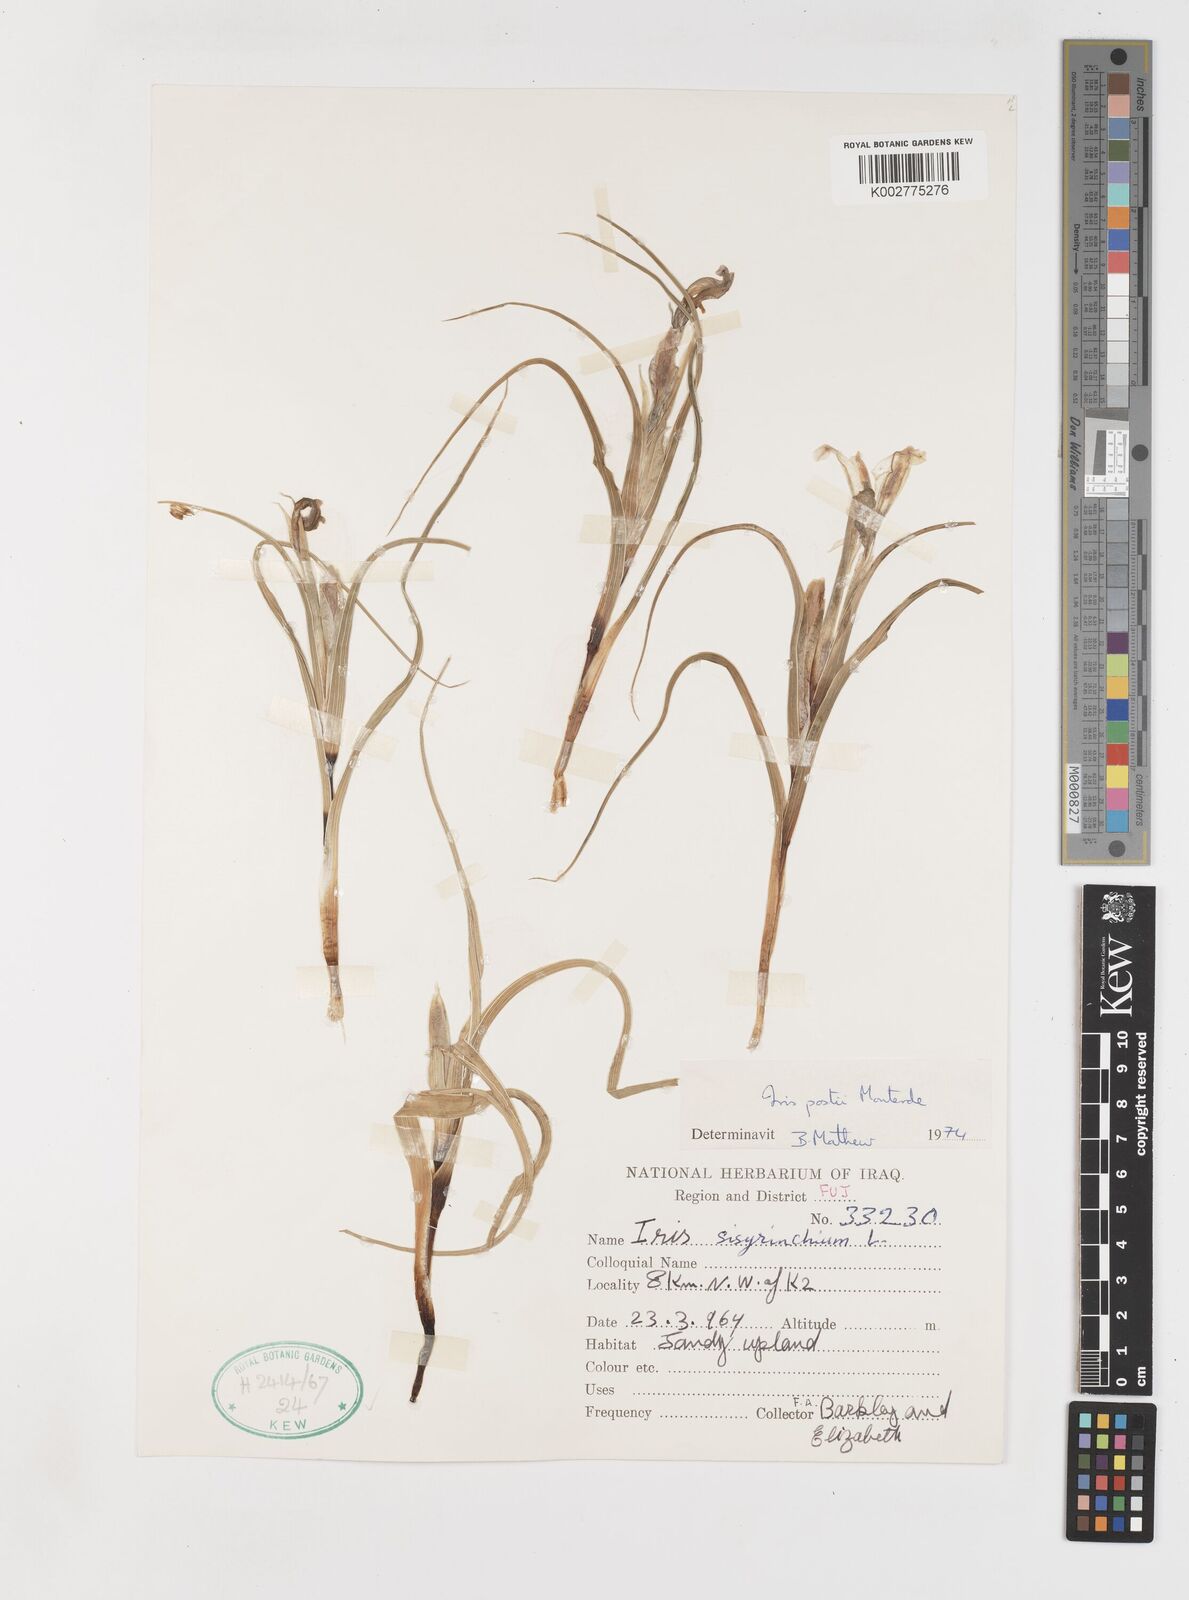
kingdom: Plantae
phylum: Tracheophyta
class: Liliopsida
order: Asparagales
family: Iridaceae
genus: Iris
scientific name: Iris postii
